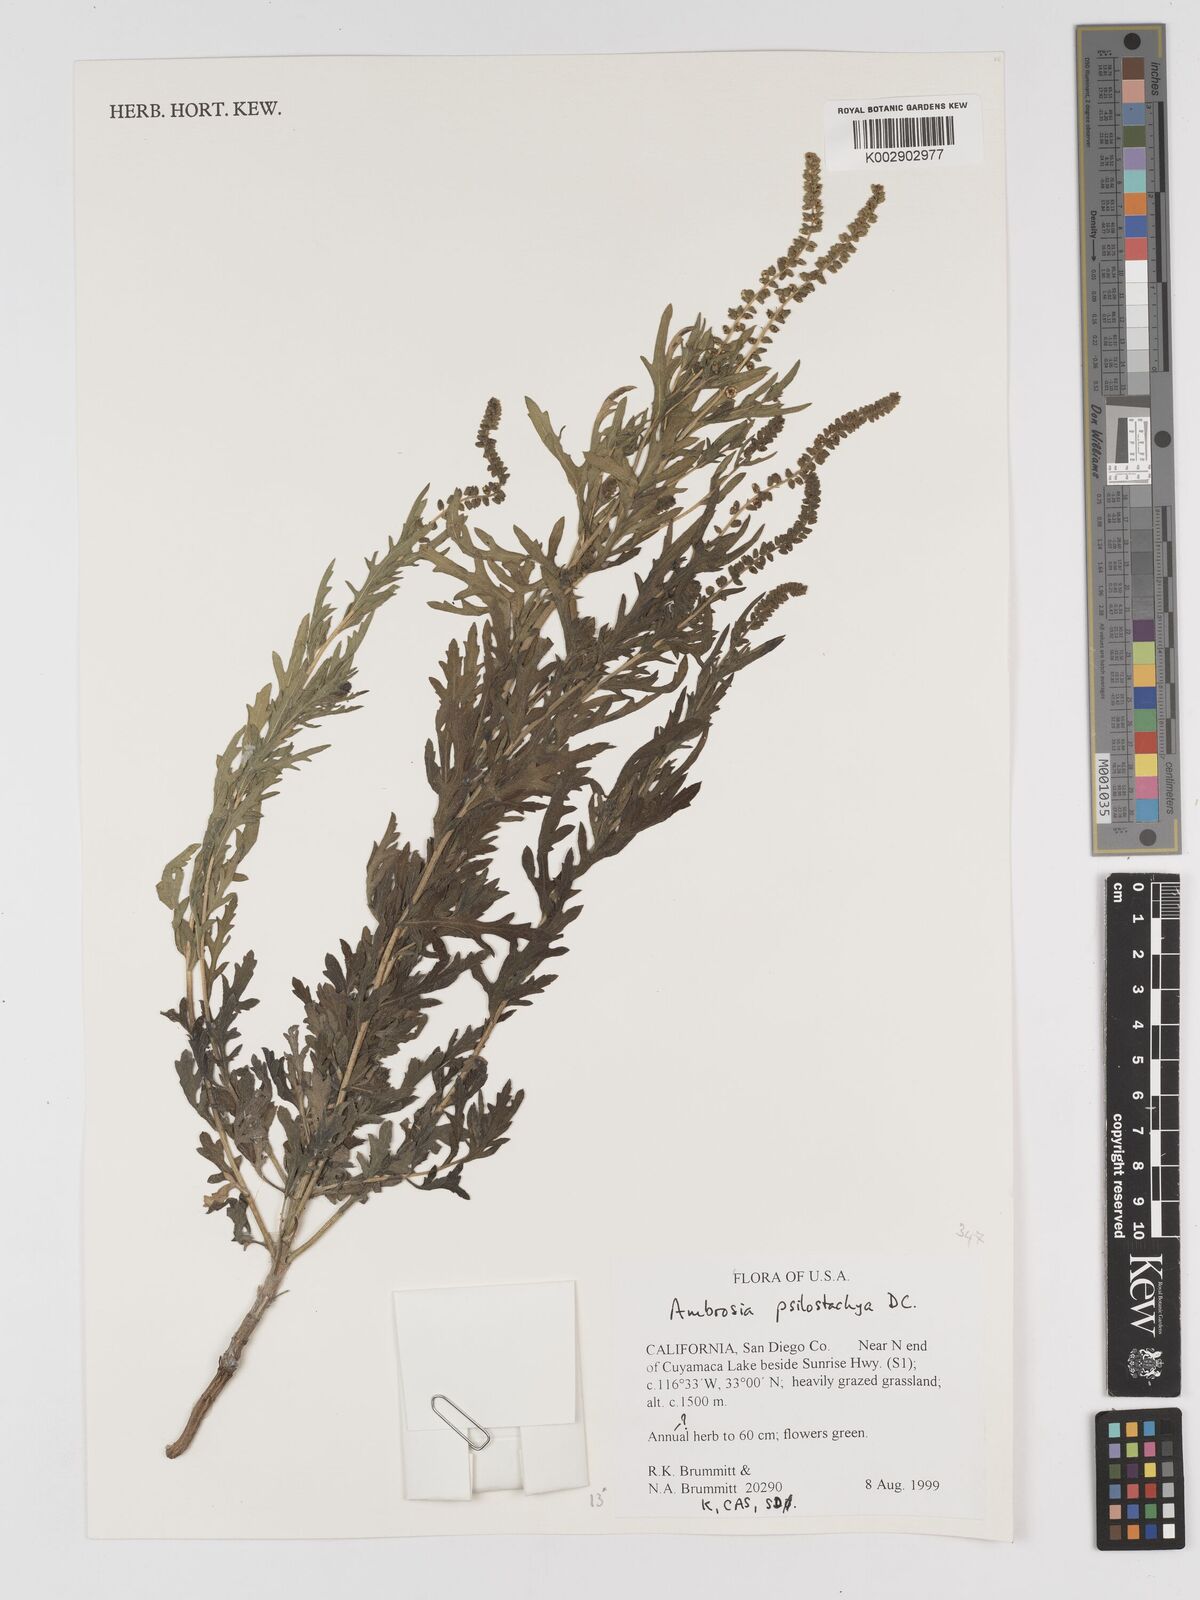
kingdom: Plantae
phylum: Tracheophyta
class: Magnoliopsida
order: Asterales
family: Asteraceae
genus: Ambrosia
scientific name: Ambrosia psilostachya
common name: Perennial ragweed
